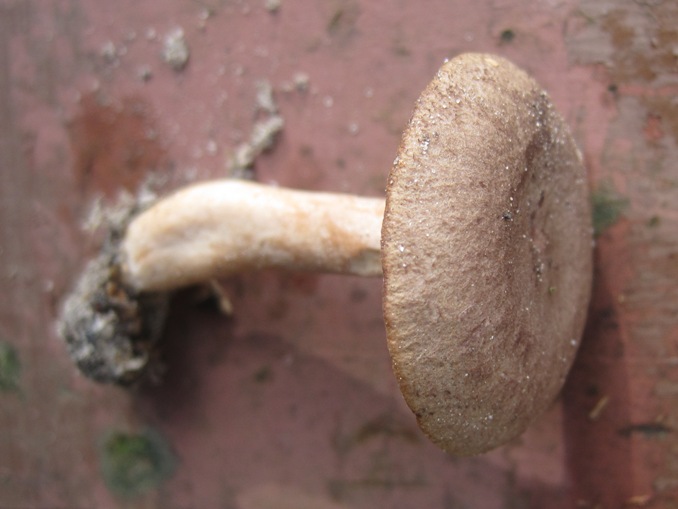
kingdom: Fungi
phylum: Basidiomycota
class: Agaricomycetes
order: Russulales
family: Russulaceae
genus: Lactarius
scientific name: Lactarius mammosus
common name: kokosbrun mælkehat
